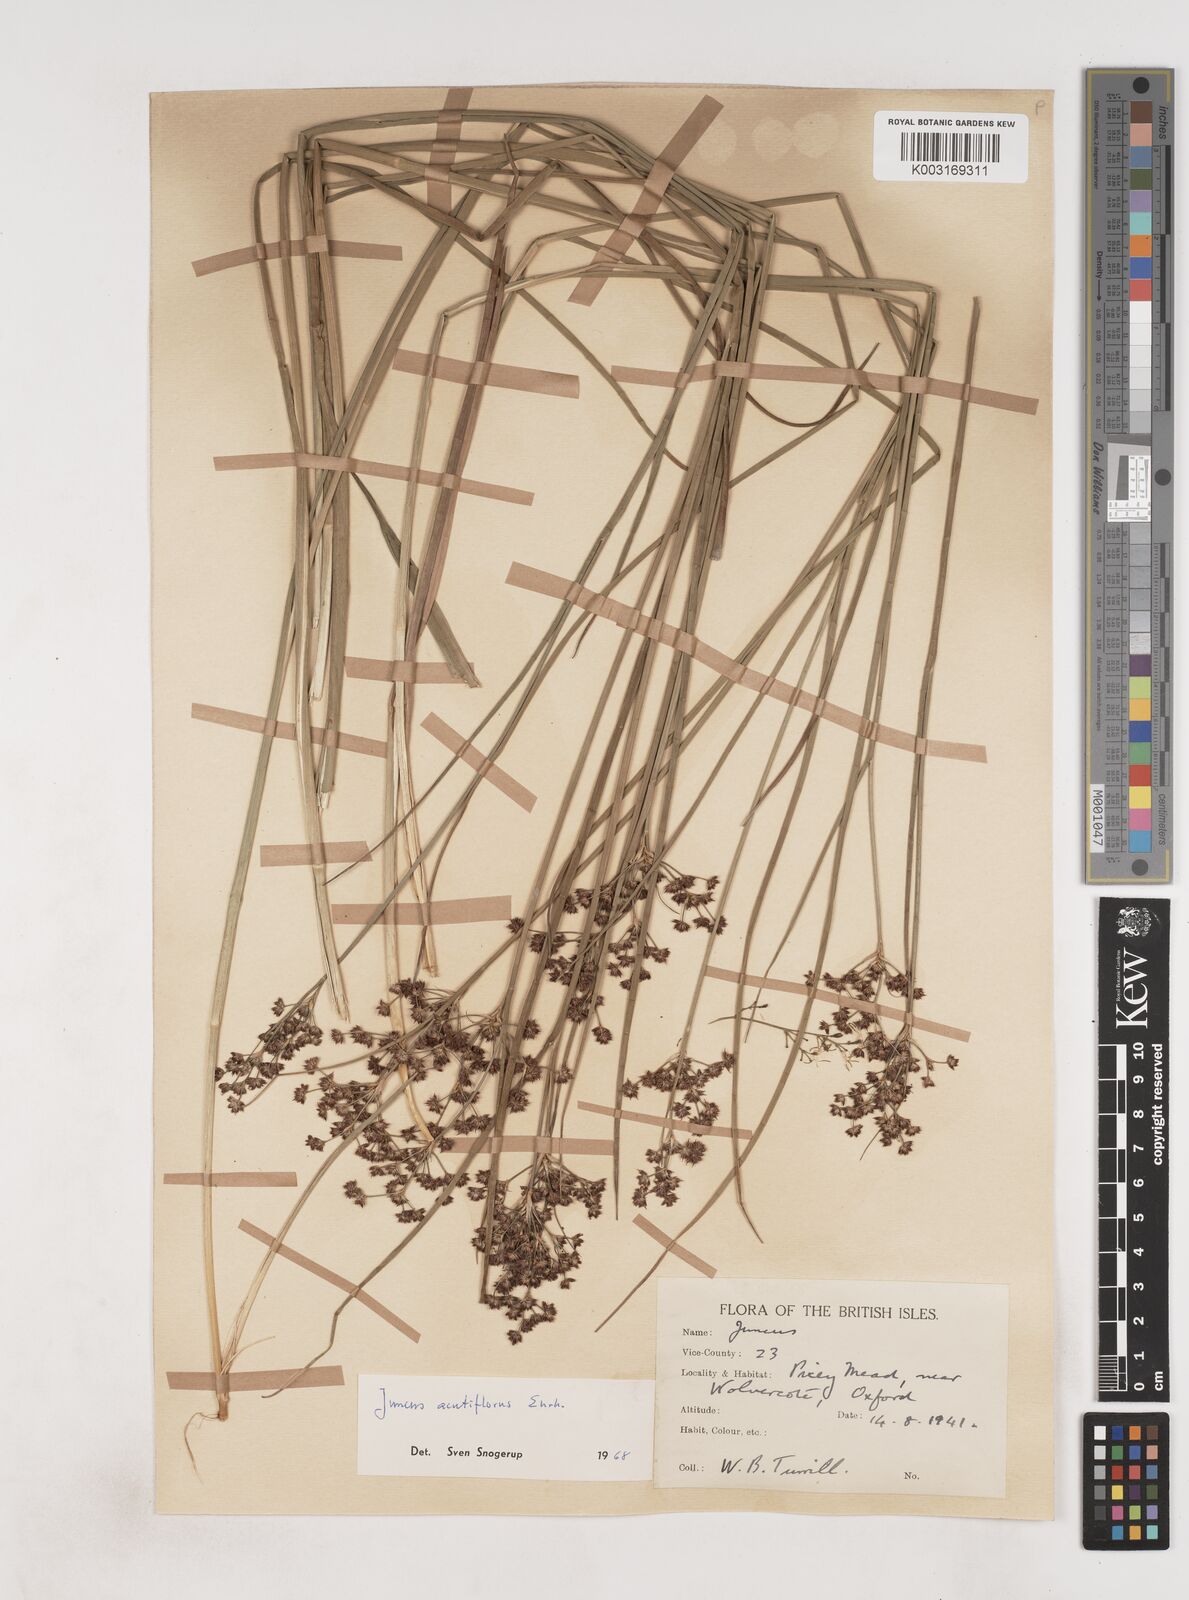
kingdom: Plantae
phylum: Tracheophyta
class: Liliopsida
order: Poales
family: Juncaceae
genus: Juncus
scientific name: Juncus acutiflorus
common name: Sharp-flowered rush
